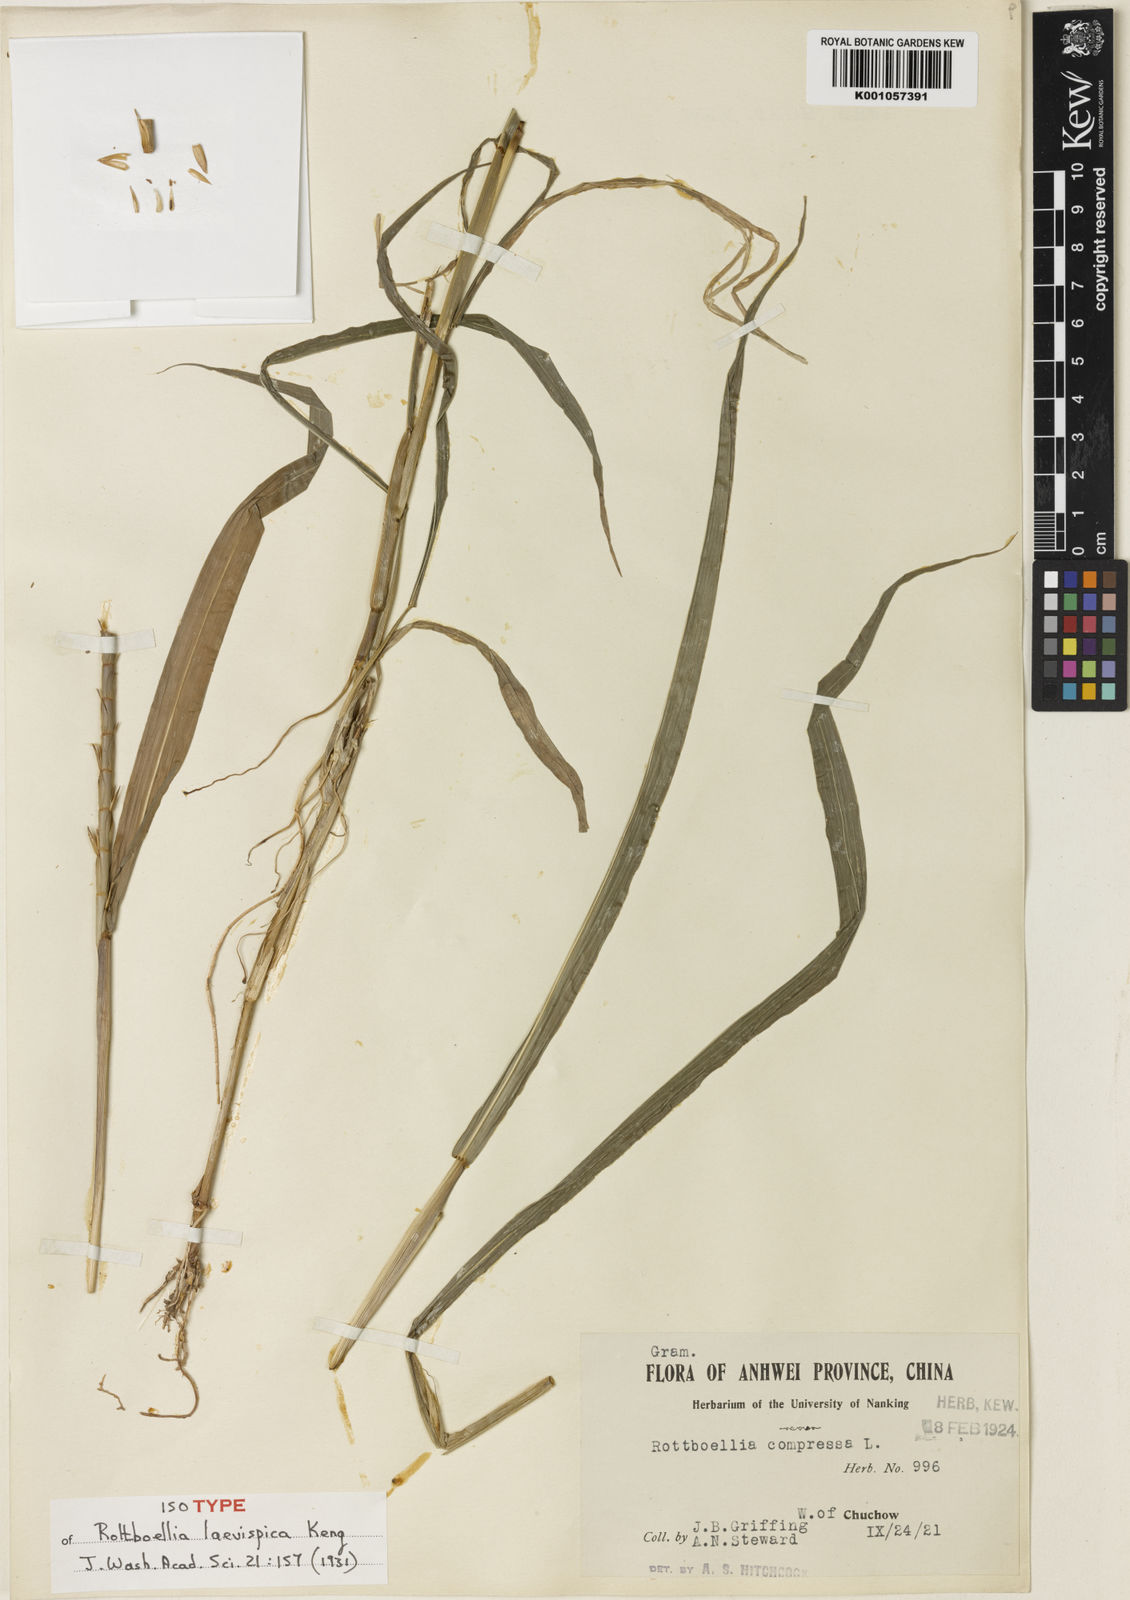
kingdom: Plantae
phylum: Tracheophyta
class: Liliopsida
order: Poales
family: Poaceae
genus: Rottboellia
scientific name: Rottboellia laevispica
